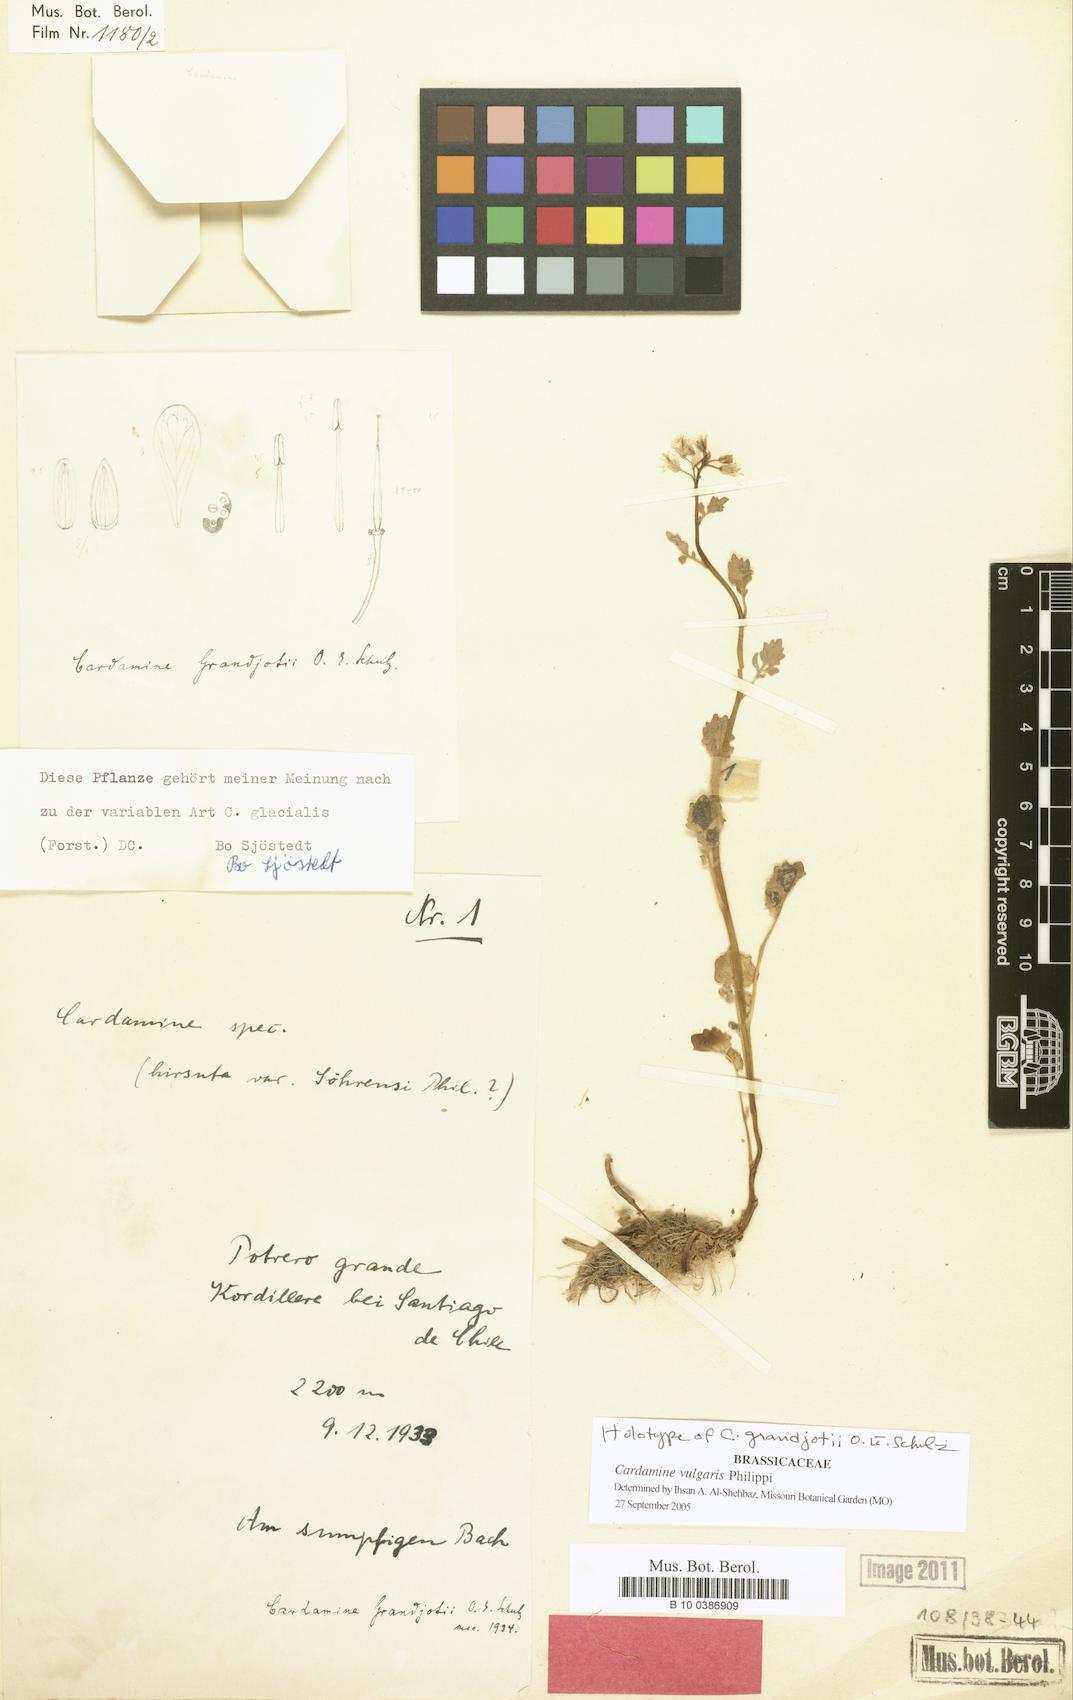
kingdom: Plantae
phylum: Tracheophyta
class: Magnoliopsida
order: Brassicales
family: Brassicaceae
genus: Cardamine
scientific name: Cardamine vulgaris
